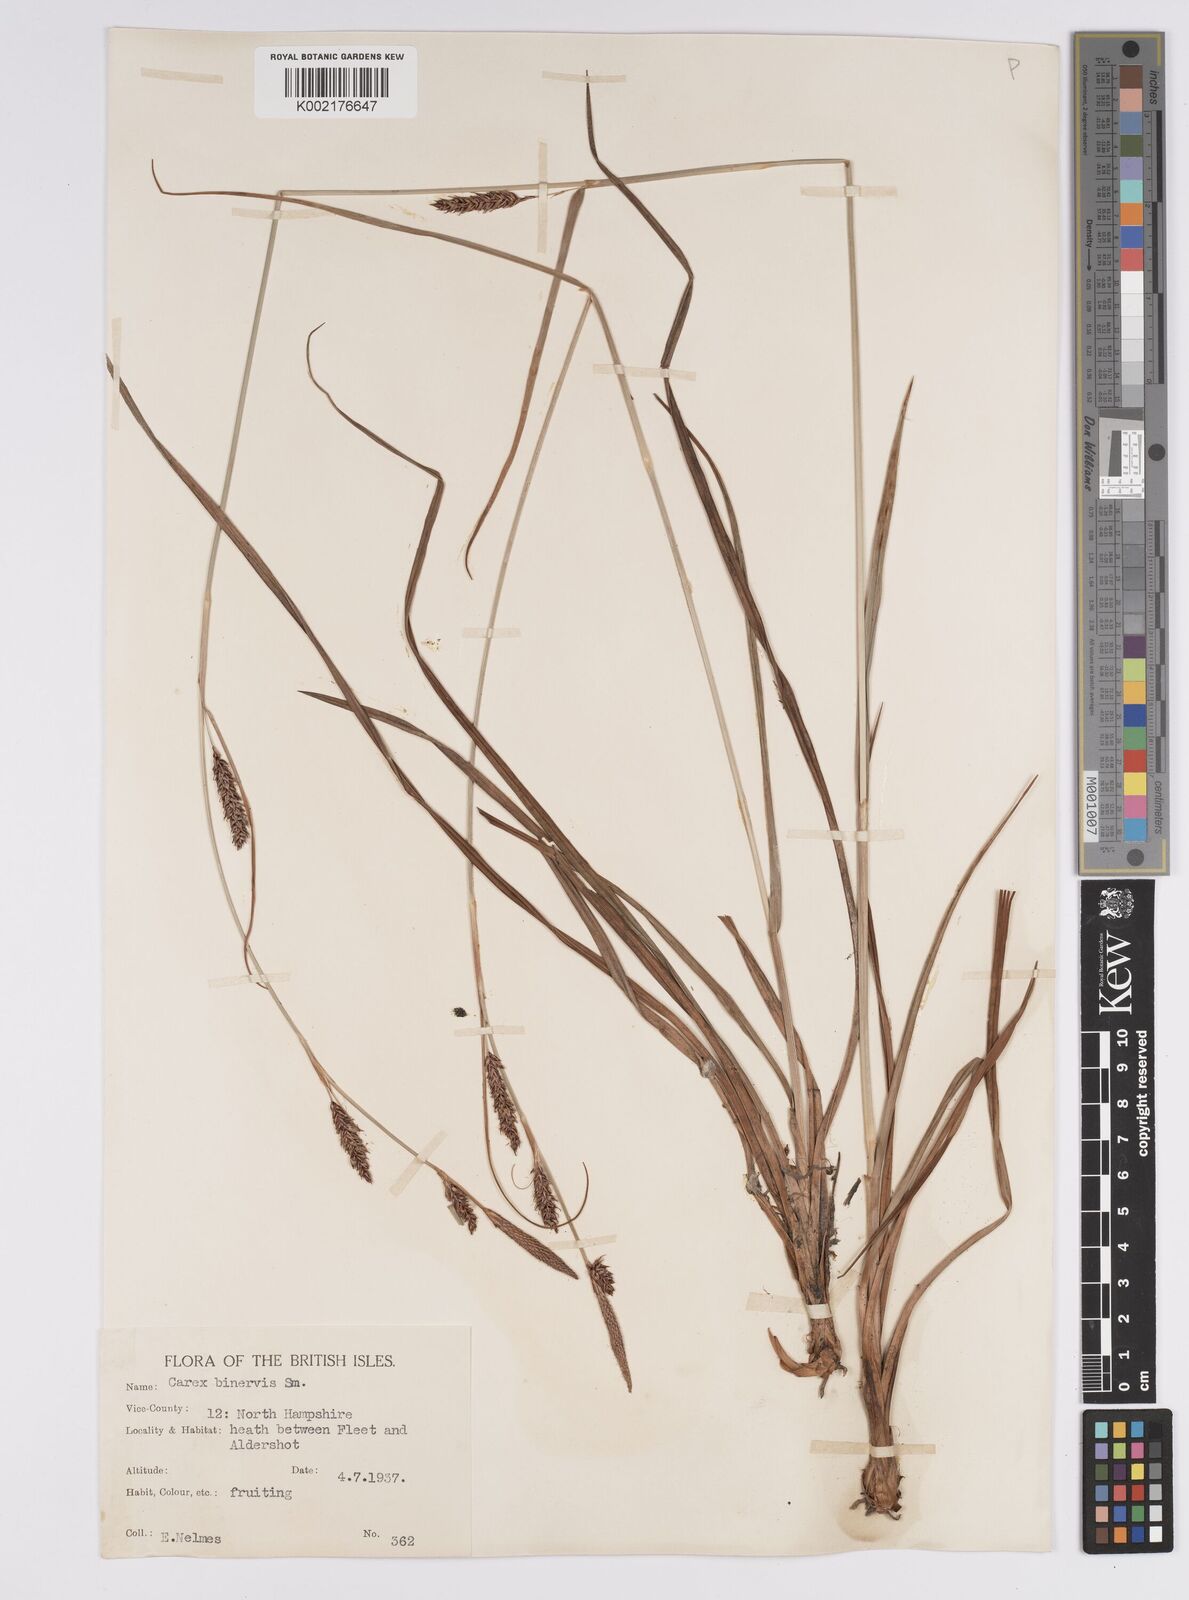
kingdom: Plantae
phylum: Tracheophyta
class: Liliopsida
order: Poales
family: Cyperaceae
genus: Carex
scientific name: Carex binervis
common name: Green-ribbed sedge
